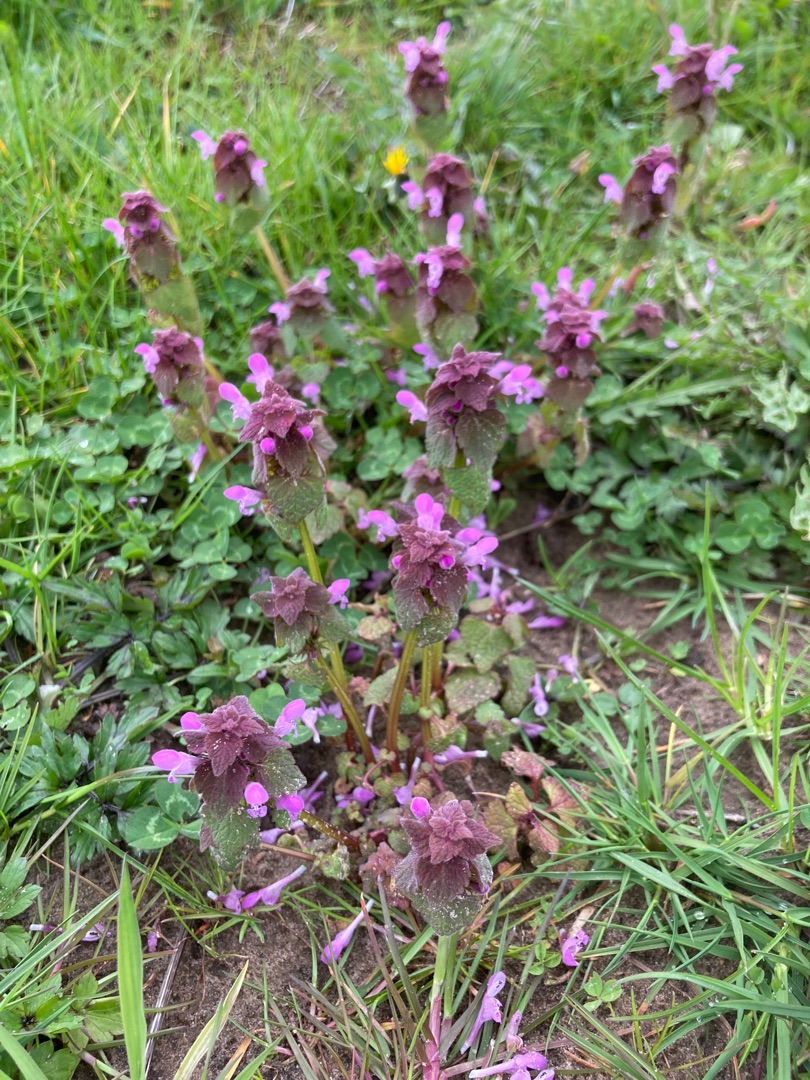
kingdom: Plantae
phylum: Tracheophyta
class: Magnoliopsida
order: Lamiales
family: Lamiaceae
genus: Lamium
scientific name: Lamium purpureum
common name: Rød tvetand
